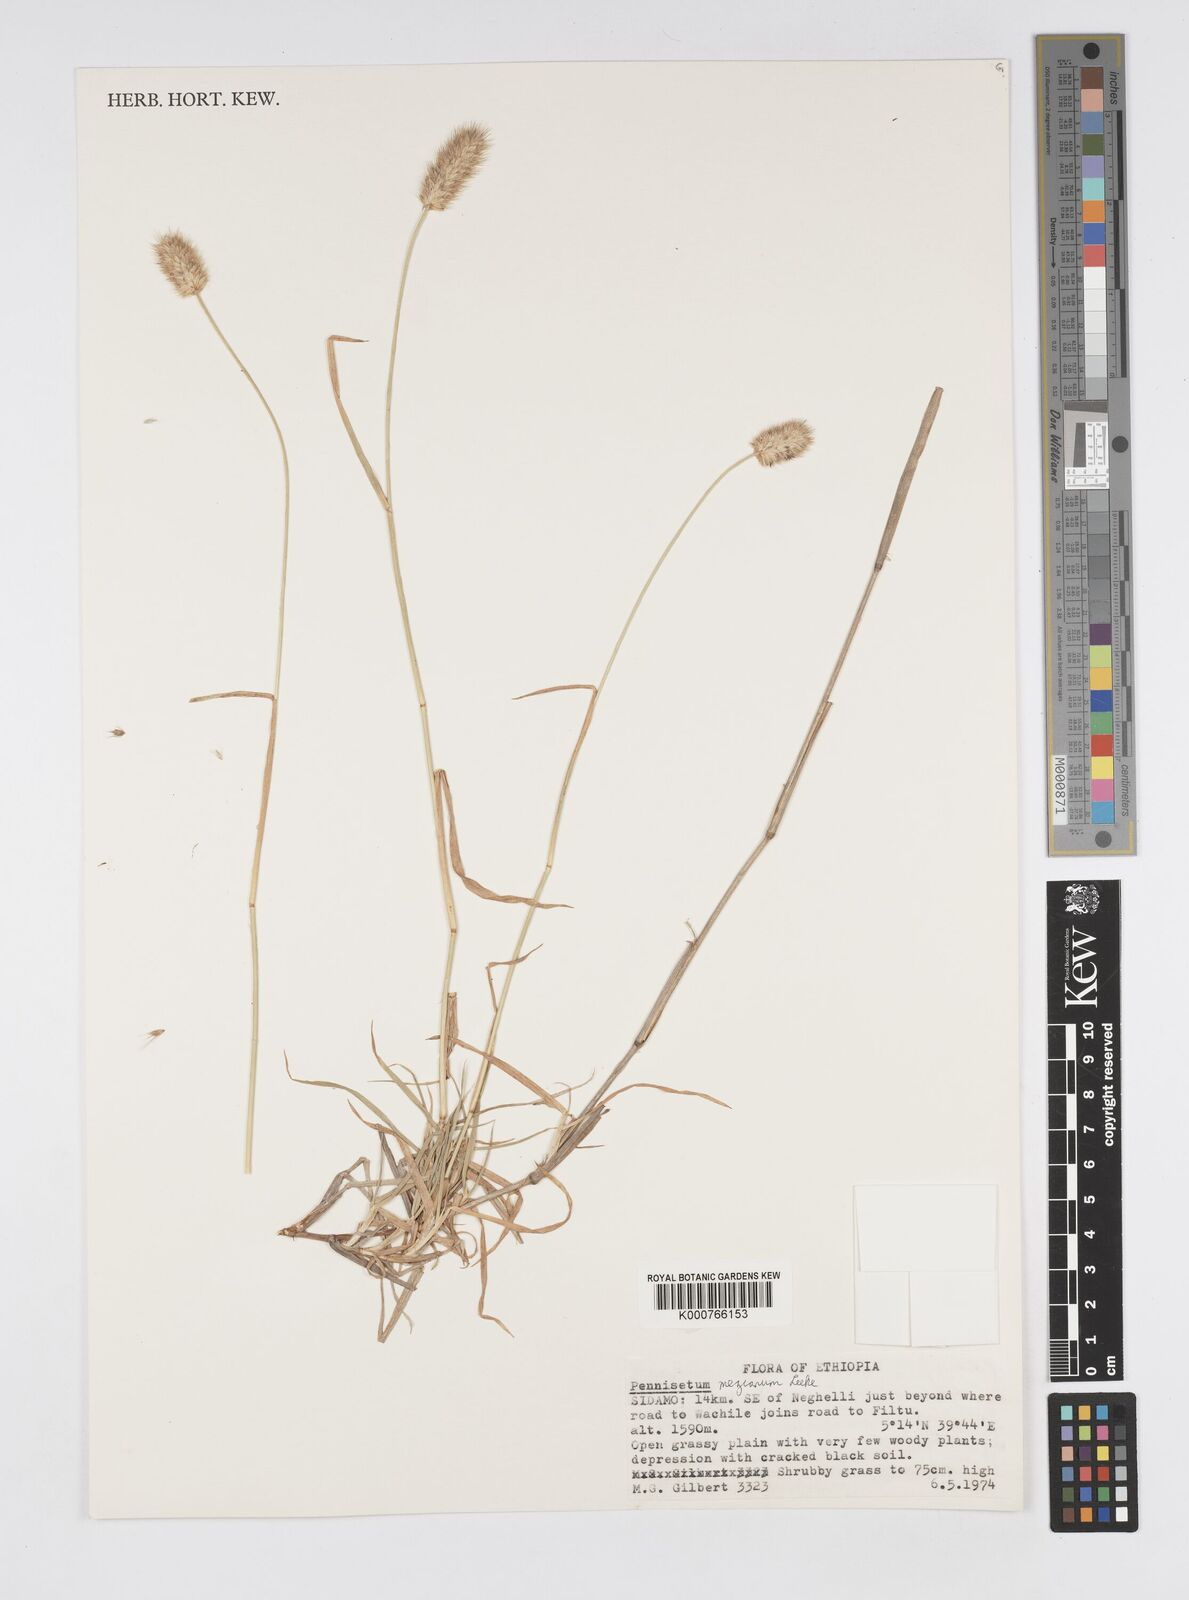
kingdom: Plantae
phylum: Tracheophyta
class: Liliopsida
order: Poales
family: Poaceae
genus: Cenchrus
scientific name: Cenchrus mezianus
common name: Bamboo grass
